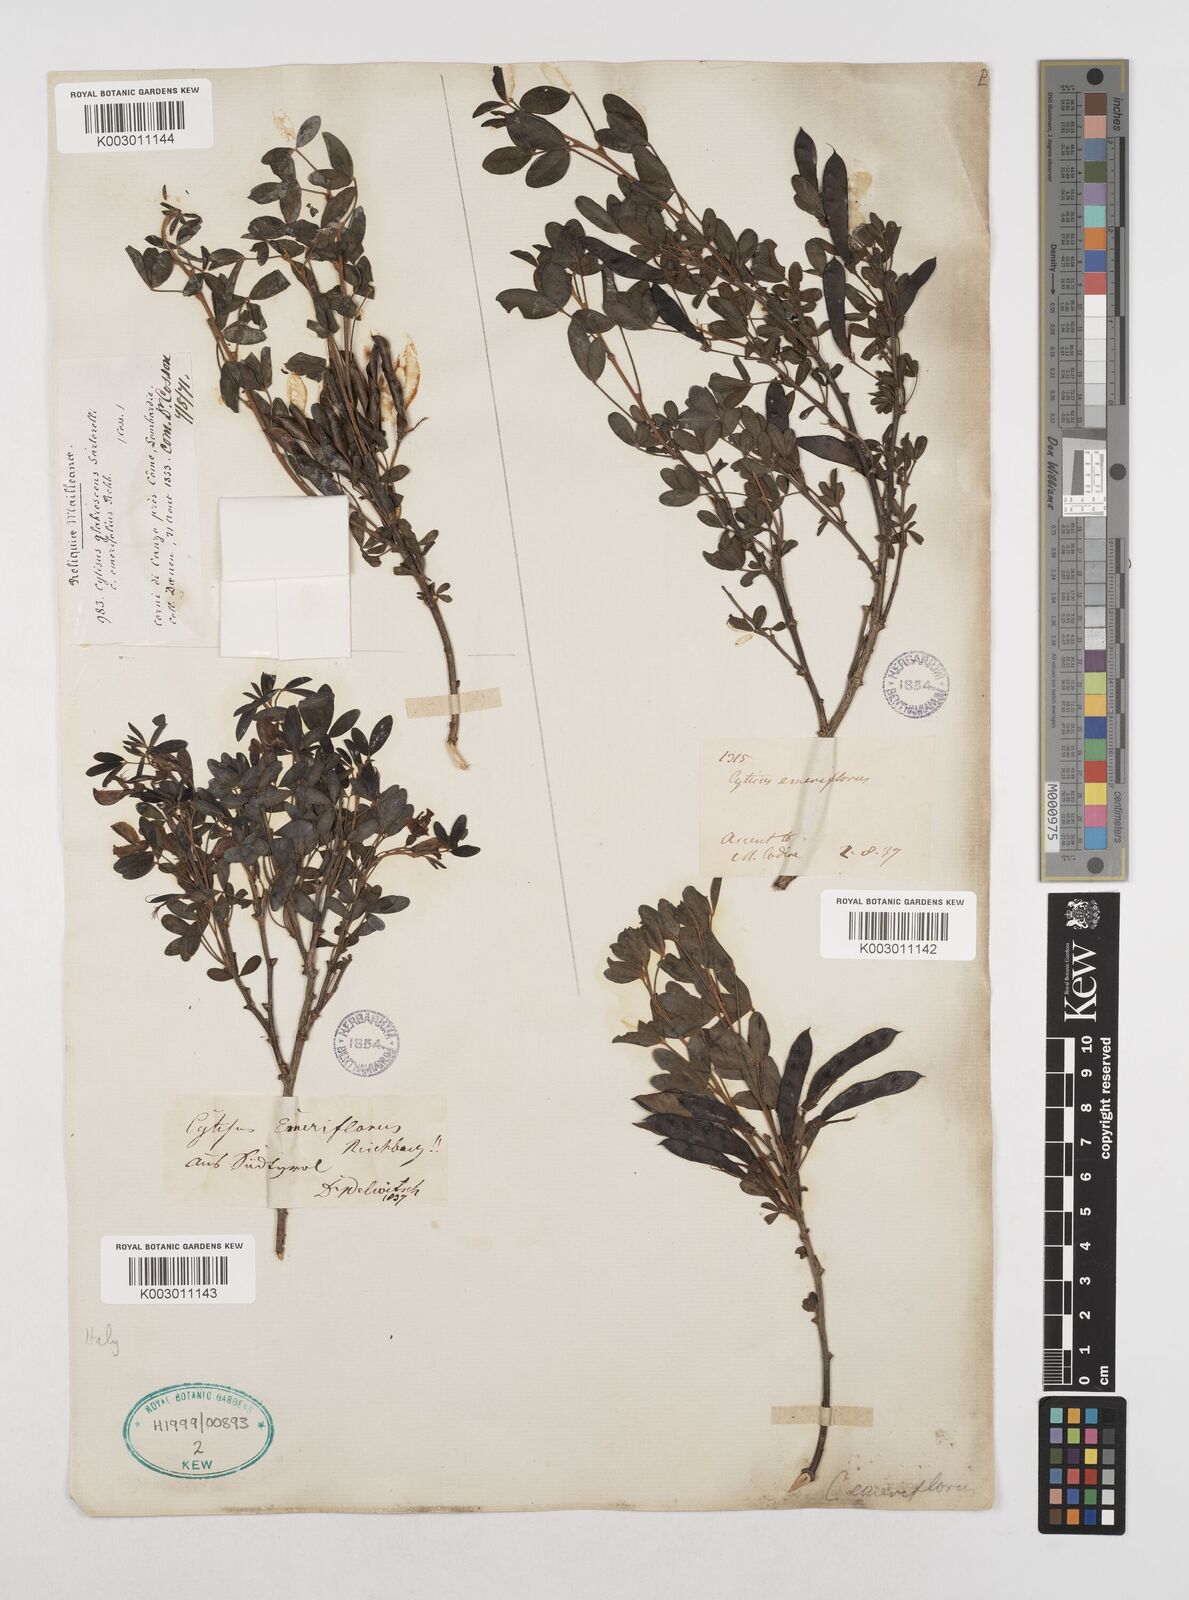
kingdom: Plantae
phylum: Tracheophyta
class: Magnoliopsida
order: Fabales
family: Fabaceae
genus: Cytisus
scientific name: Cytisus emeriflorus
